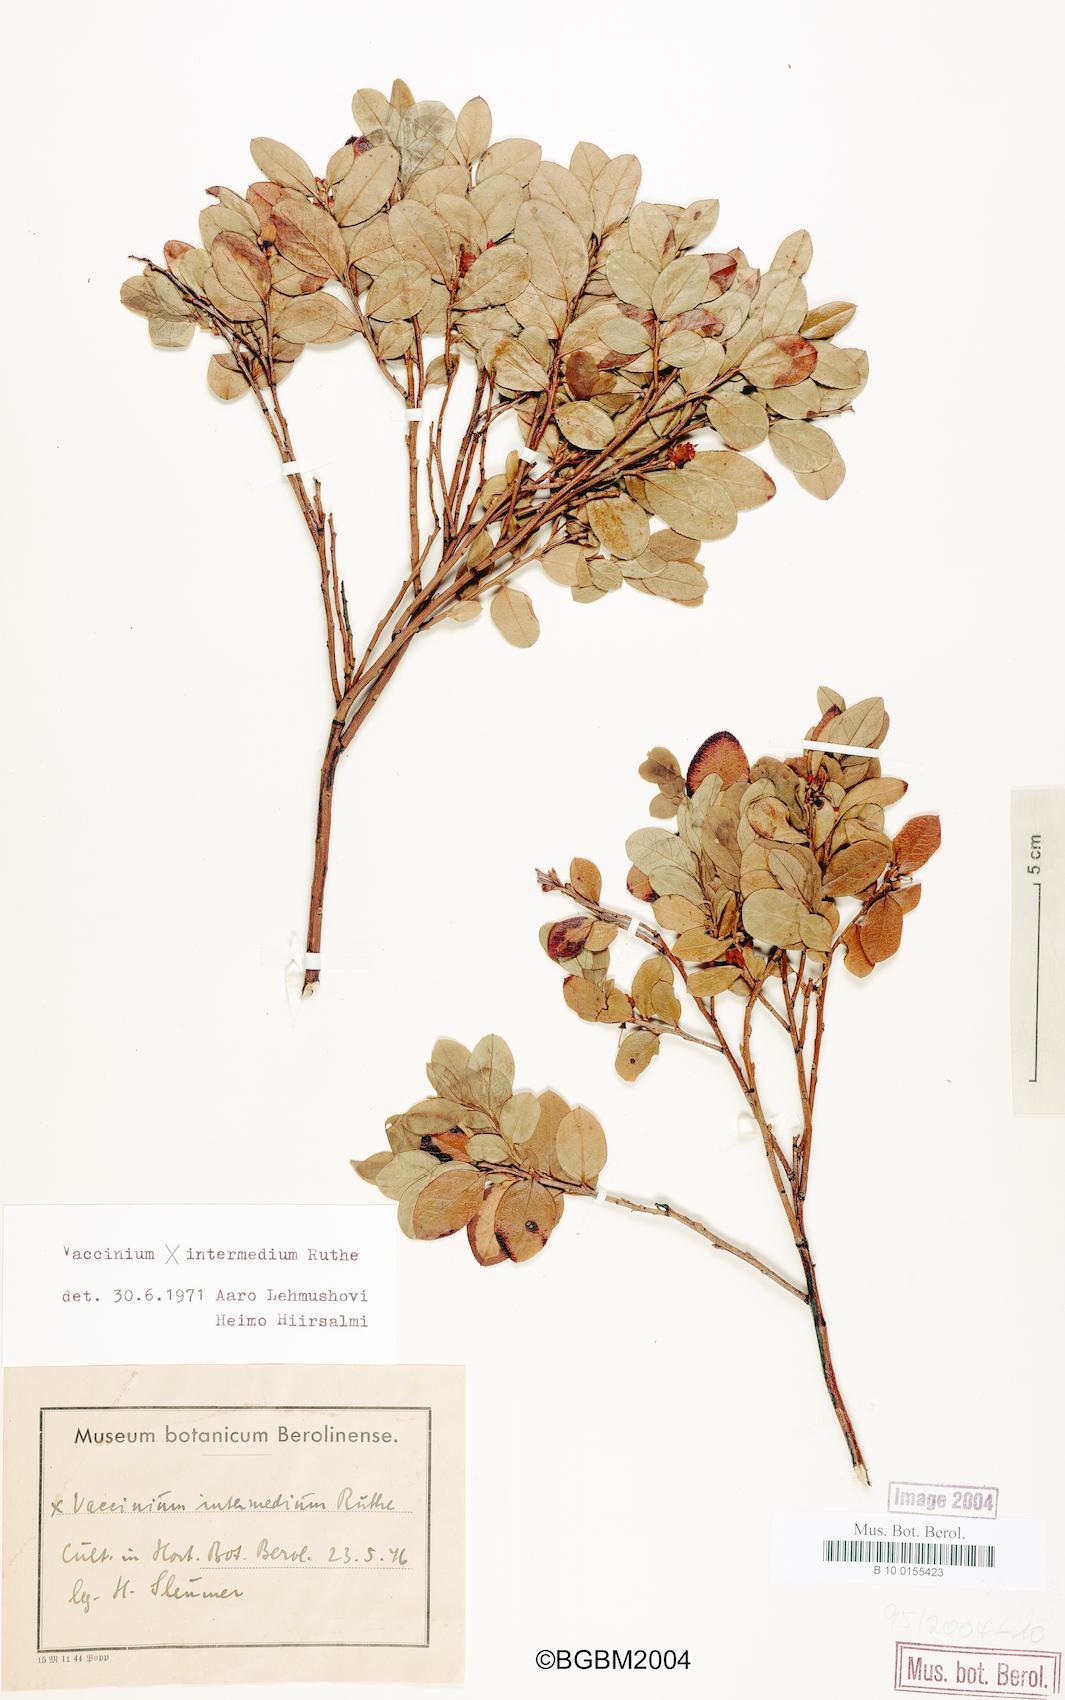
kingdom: Plantae
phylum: Tracheophyta
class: Magnoliopsida
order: Ericales
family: Ericaceae
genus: Vaccinium
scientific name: Vaccinium intermedium
